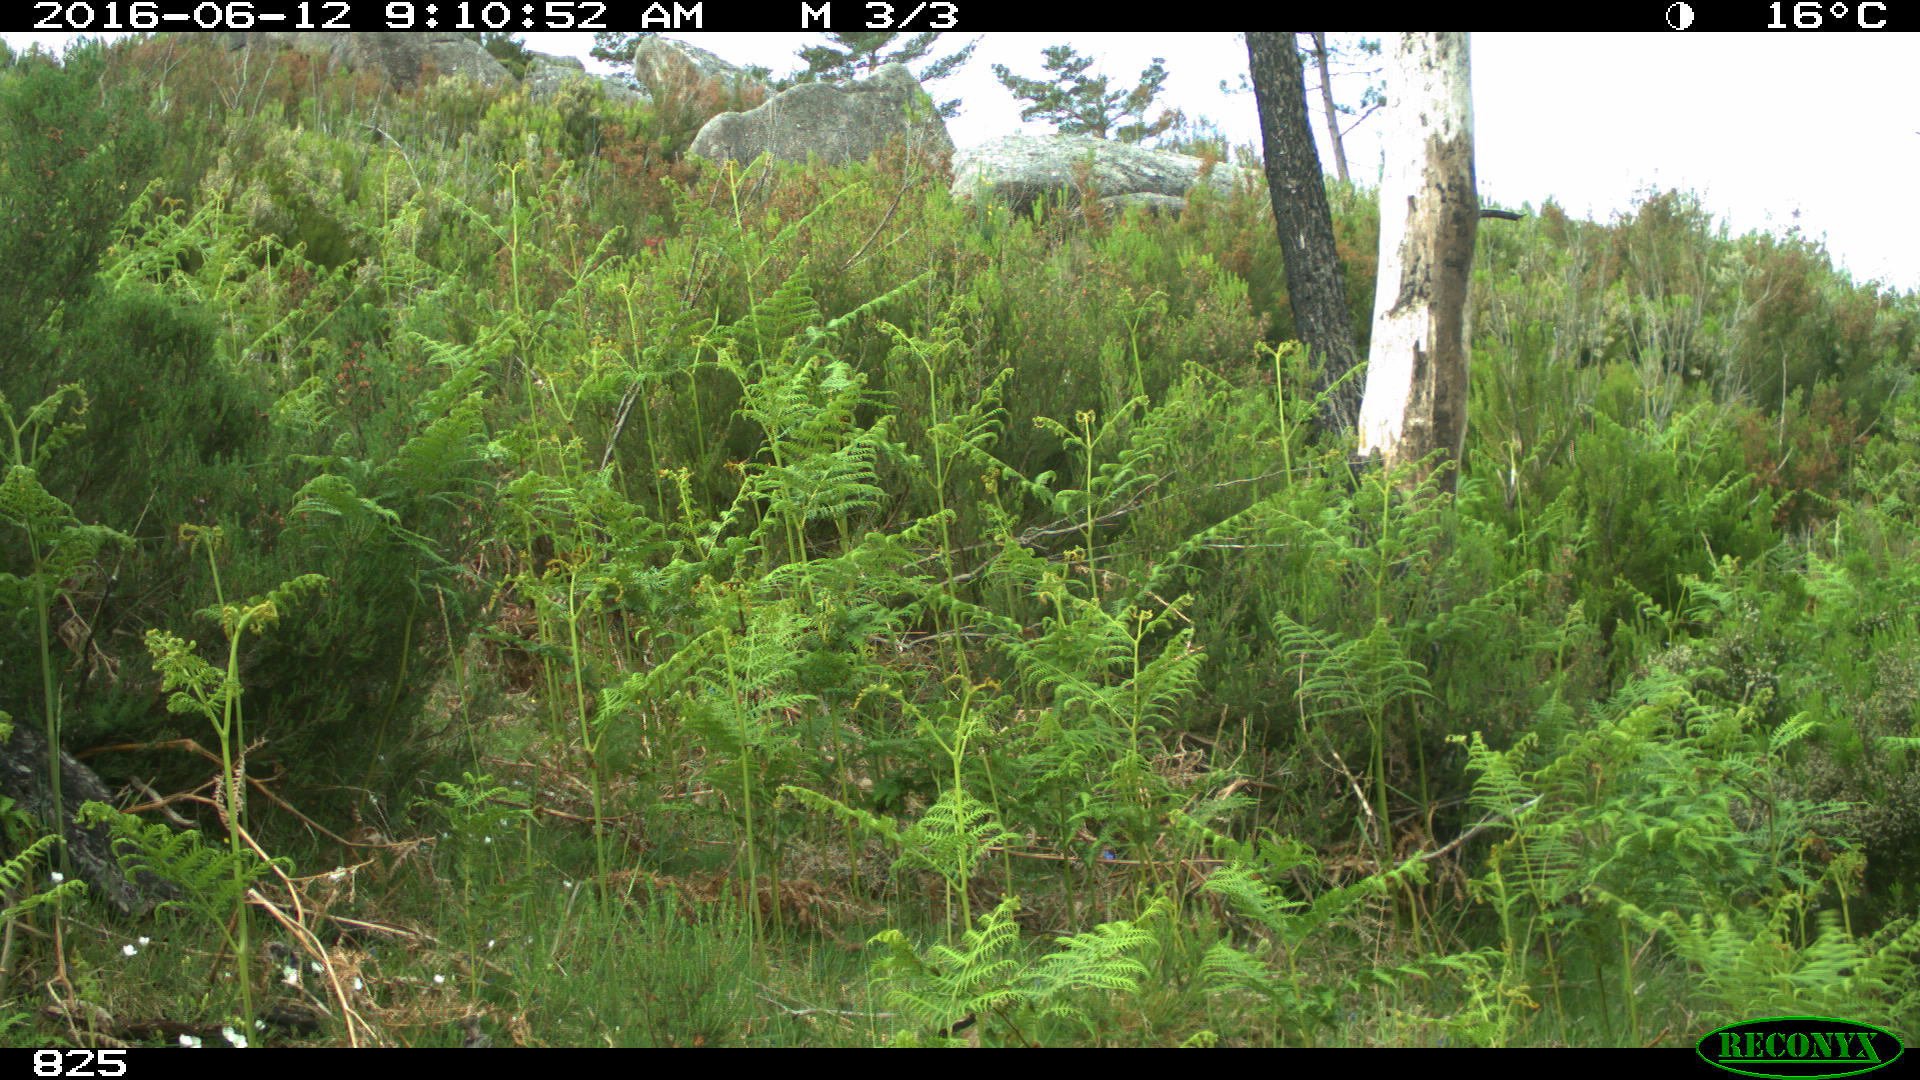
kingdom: Animalia
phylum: Chordata
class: Mammalia
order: Artiodactyla
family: Cervidae
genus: Capreolus
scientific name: Capreolus capreolus
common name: Western roe deer
